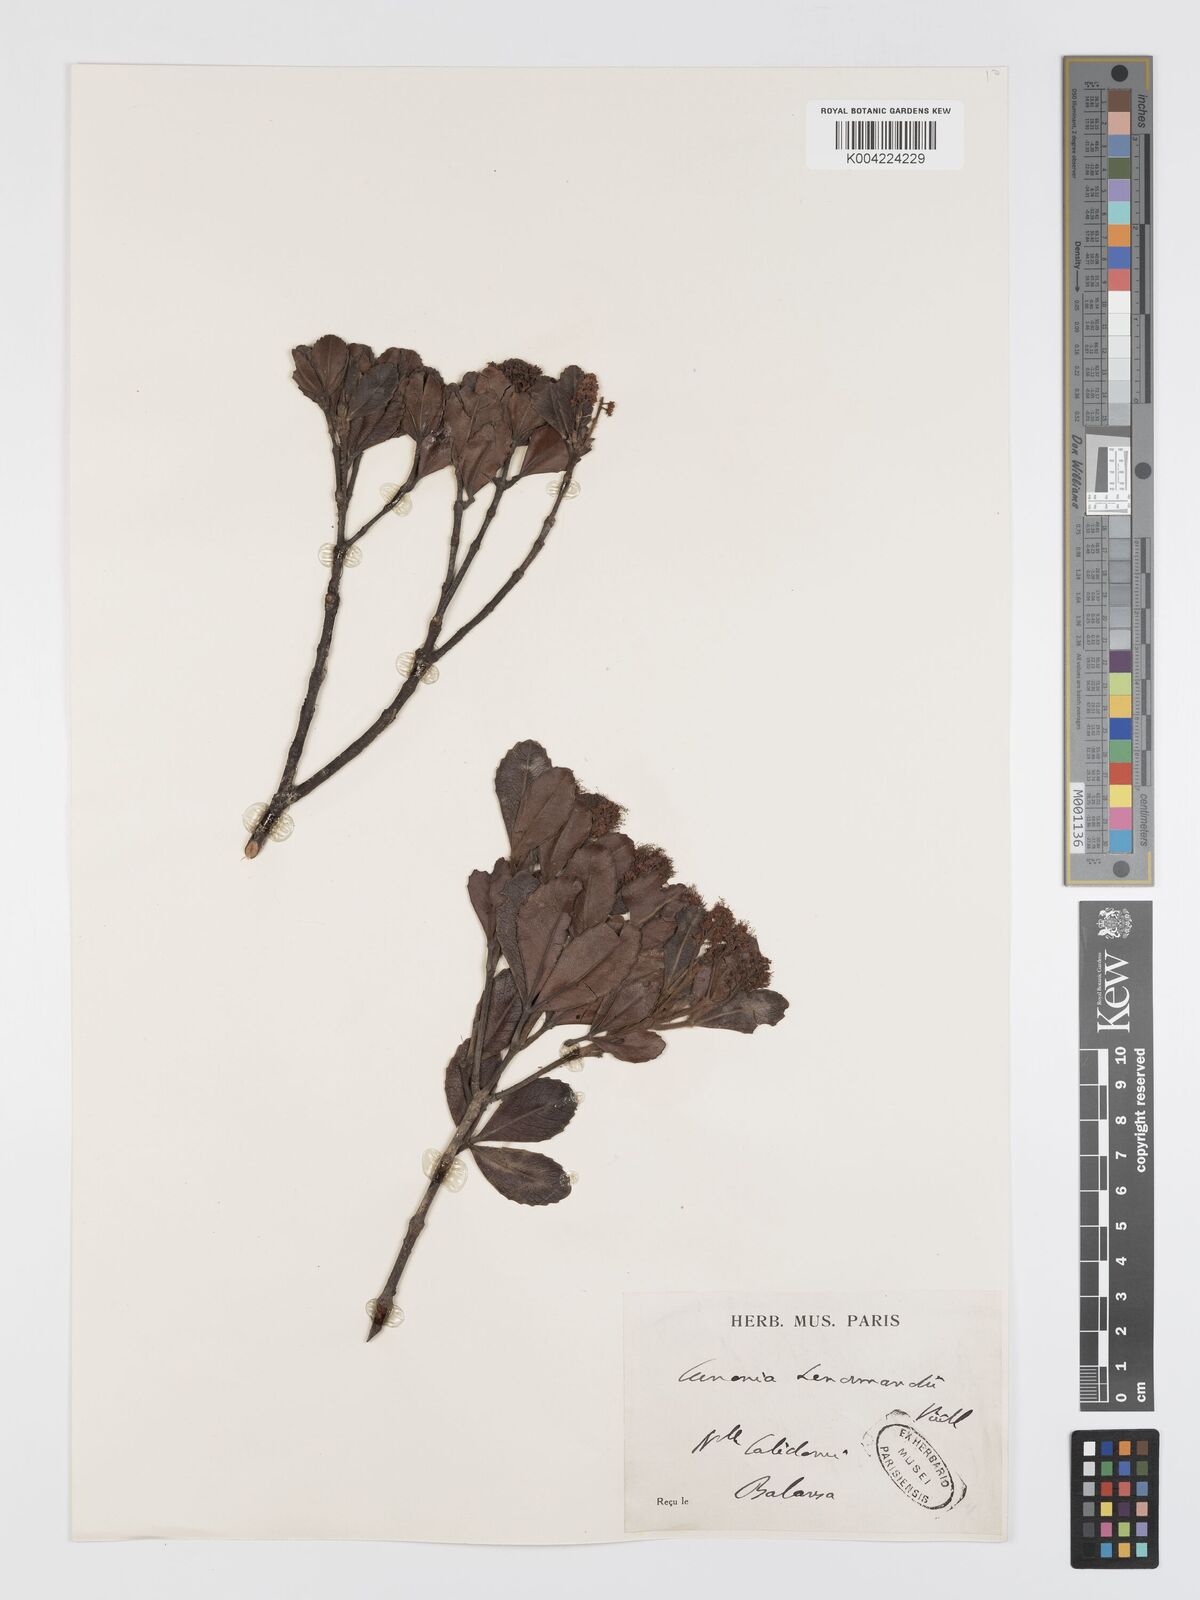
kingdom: Plantae
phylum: Tracheophyta
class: Magnoliopsida
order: Oxalidales
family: Cunoniaceae
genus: Cunonia
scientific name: Cunonia lenormandii
